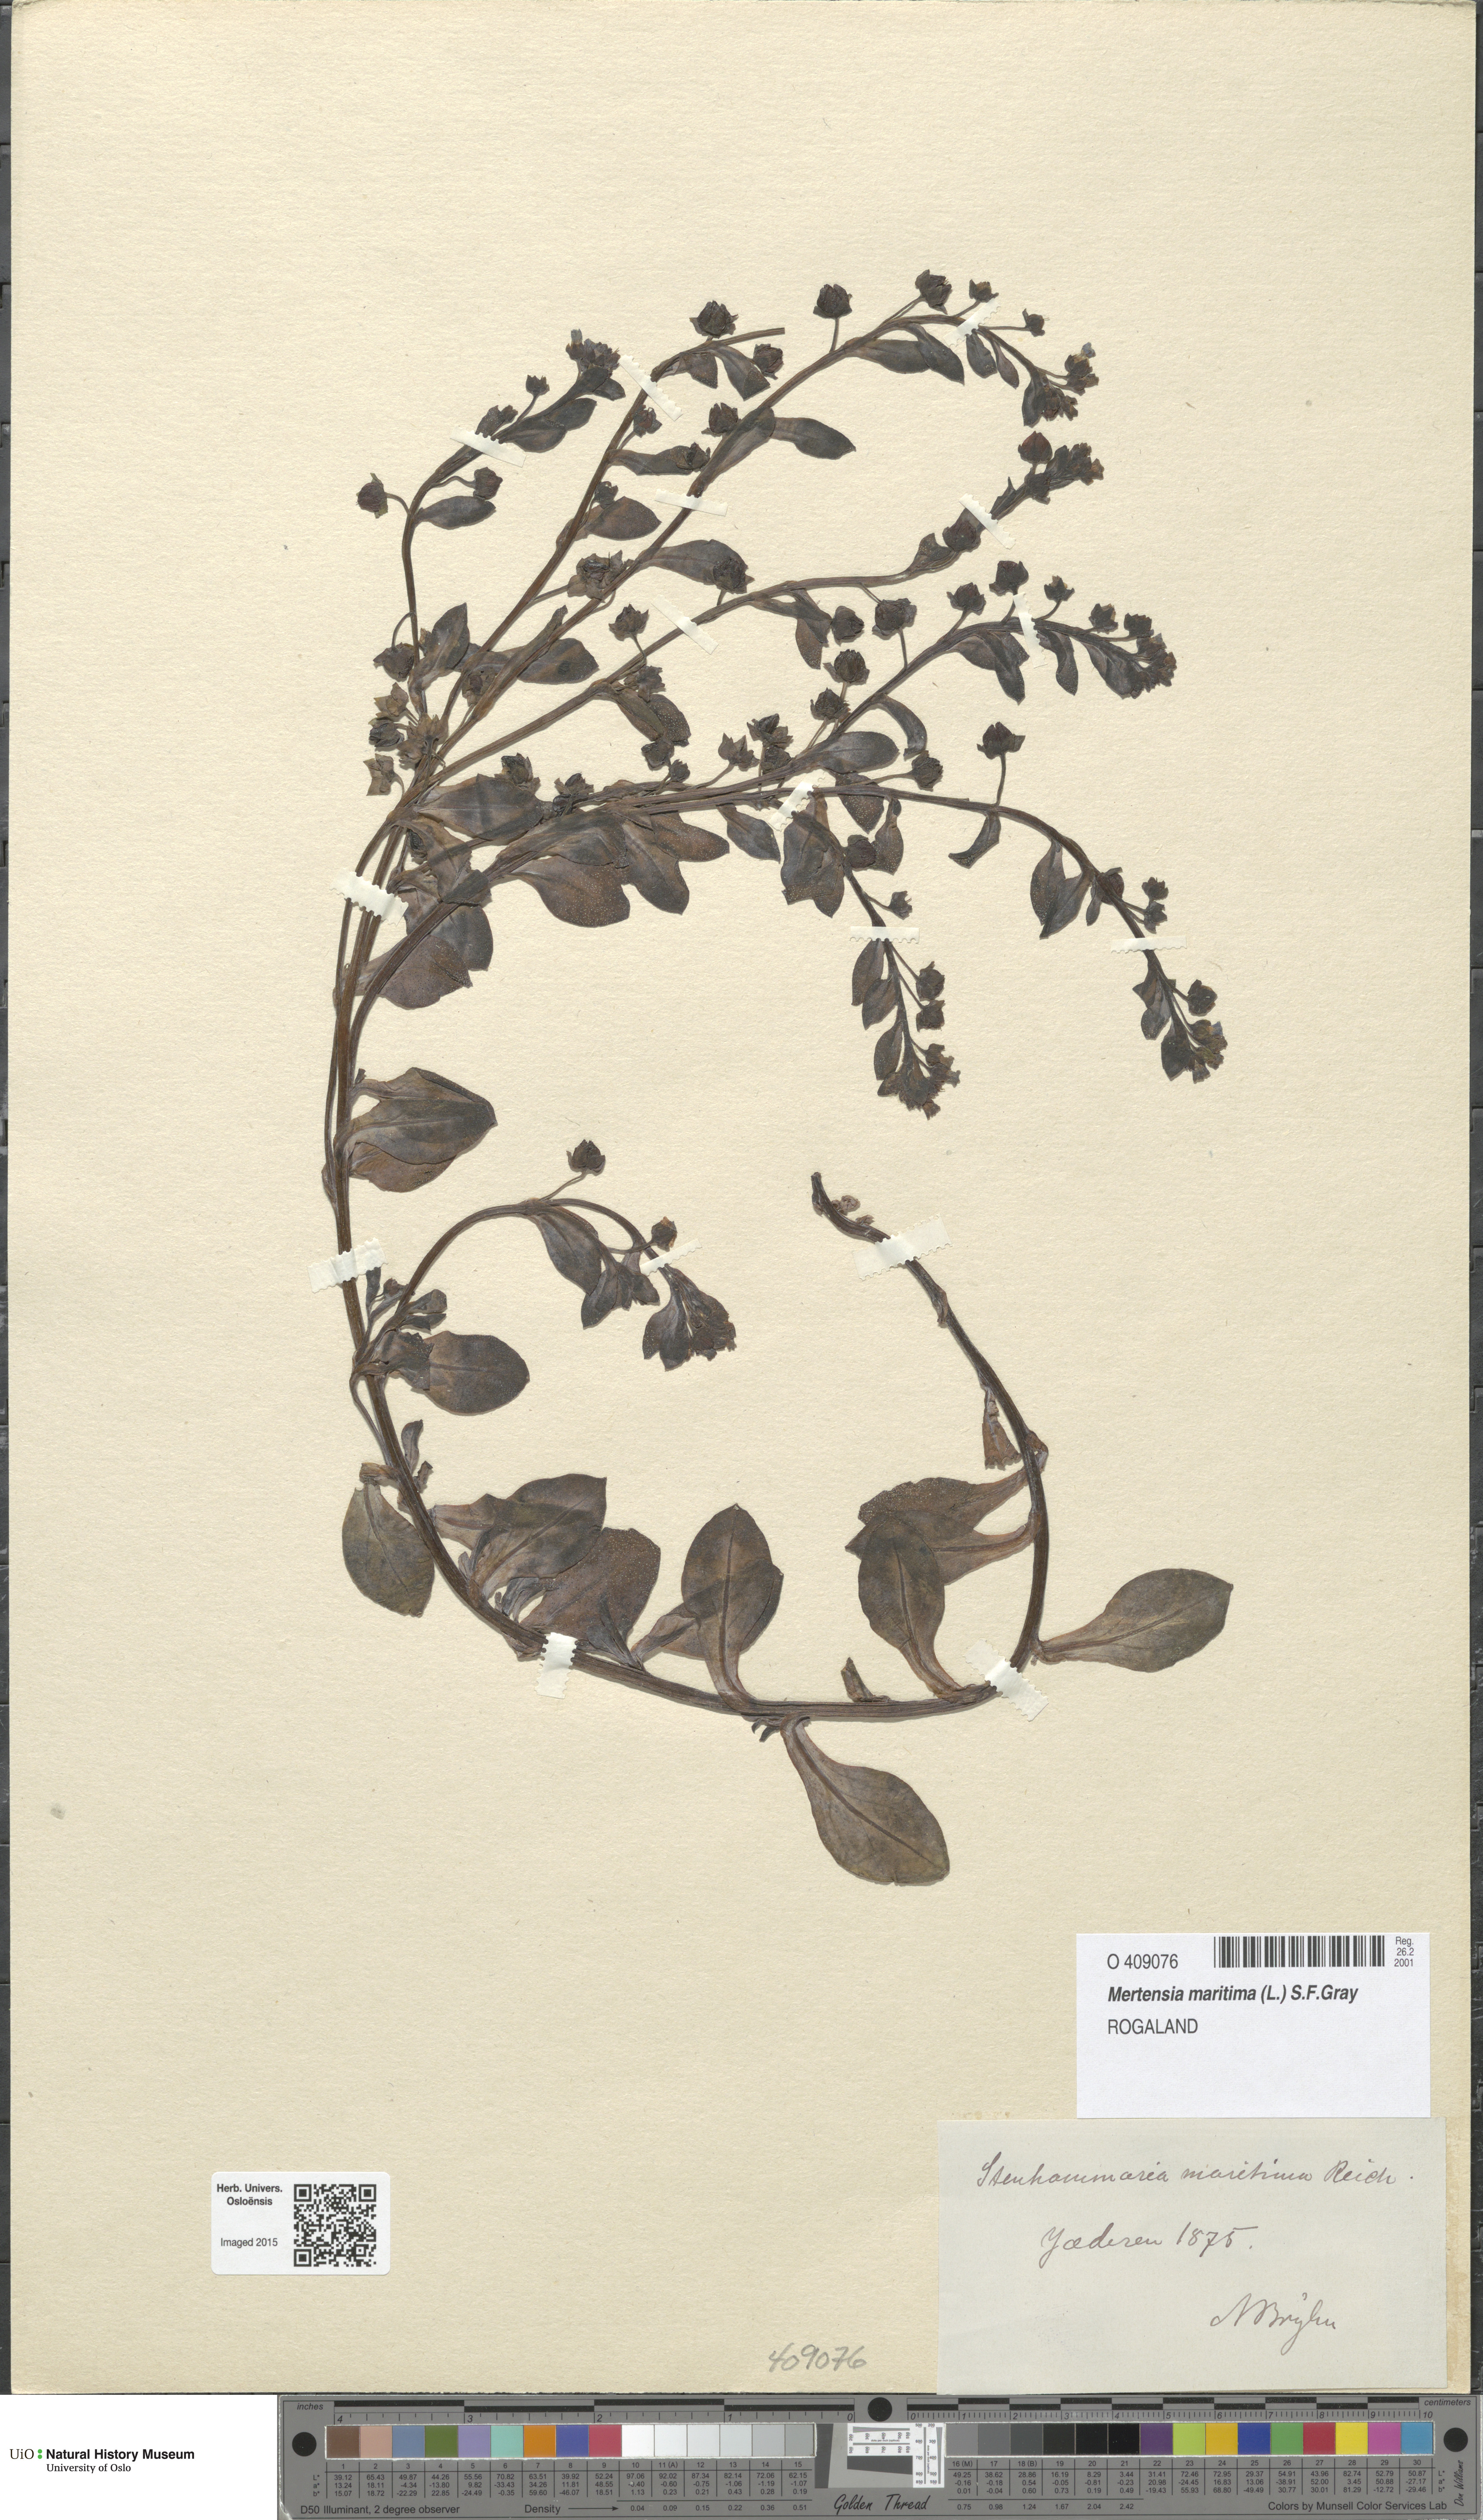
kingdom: Plantae
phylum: Tracheophyta
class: Magnoliopsida
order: Boraginales
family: Boraginaceae
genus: Mertensia
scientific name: Mertensia maritima
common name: Oysterplant
